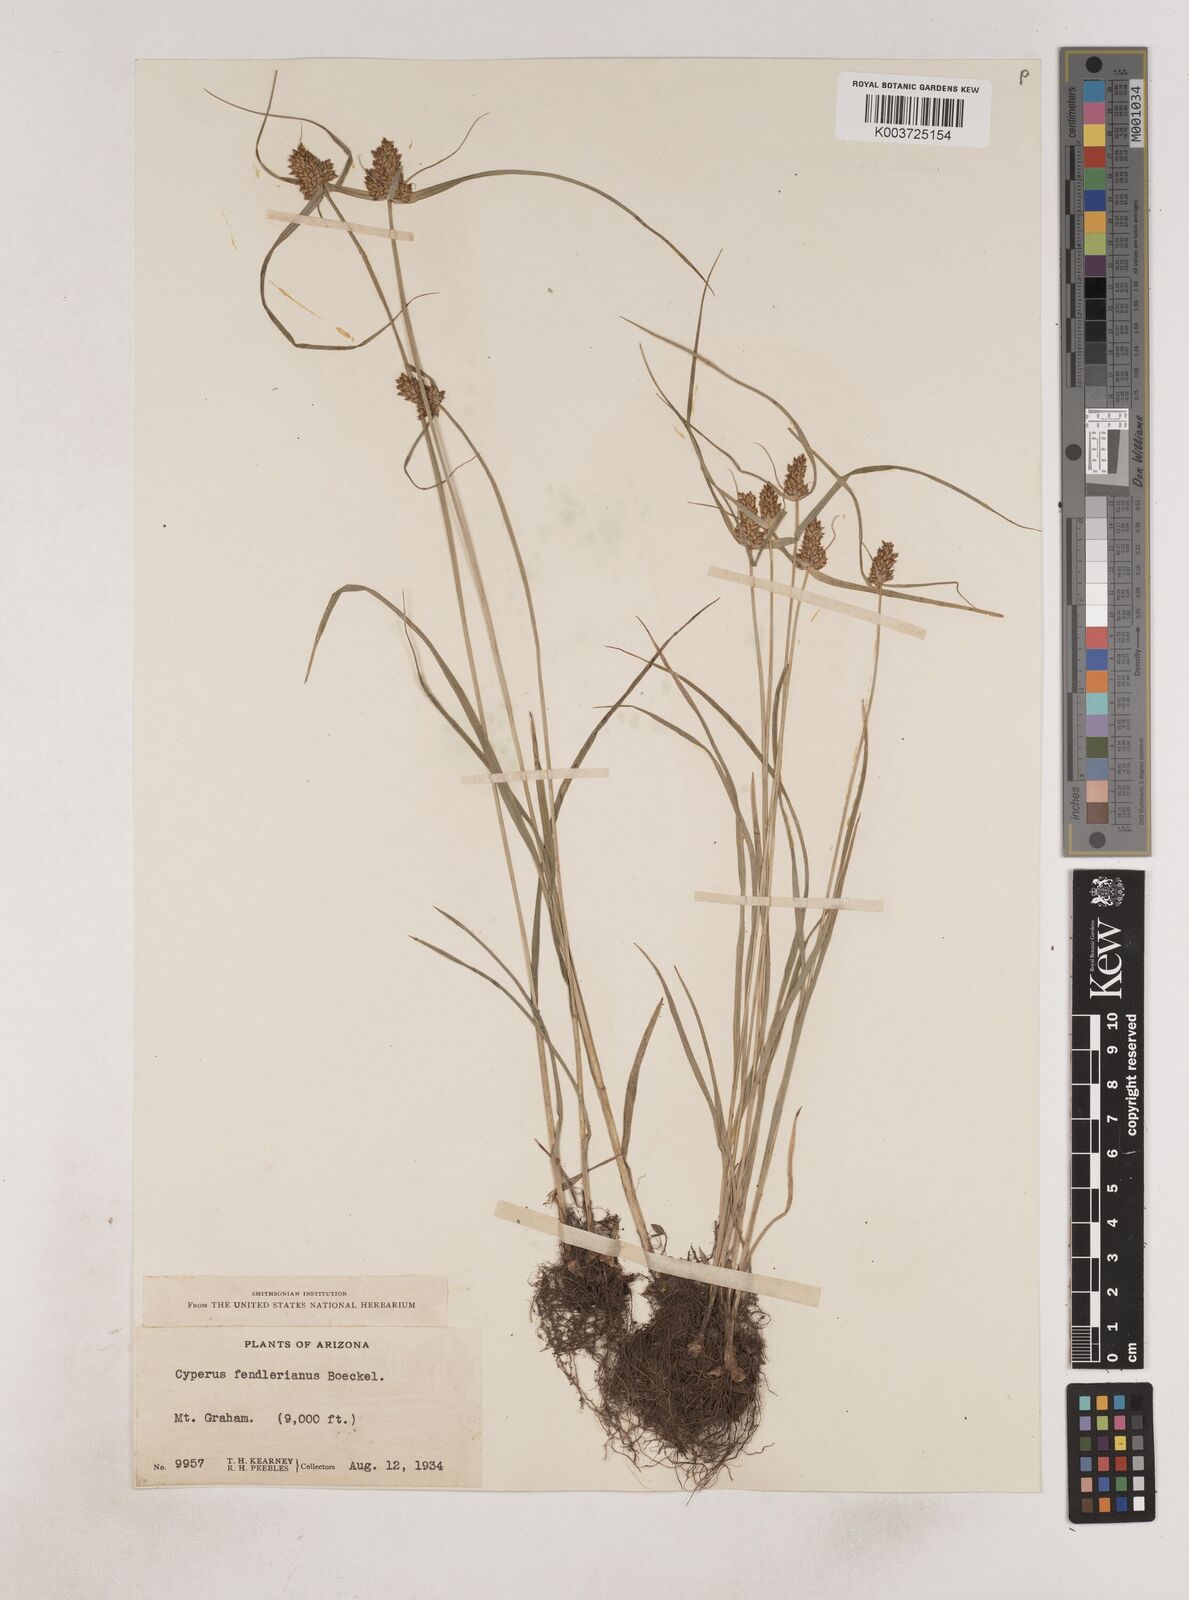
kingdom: Plantae
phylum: Tracheophyta
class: Liliopsida
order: Poales
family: Cyperaceae
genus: Cyperus
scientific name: Cyperus fendlerianus
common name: Fendler flat sedge
